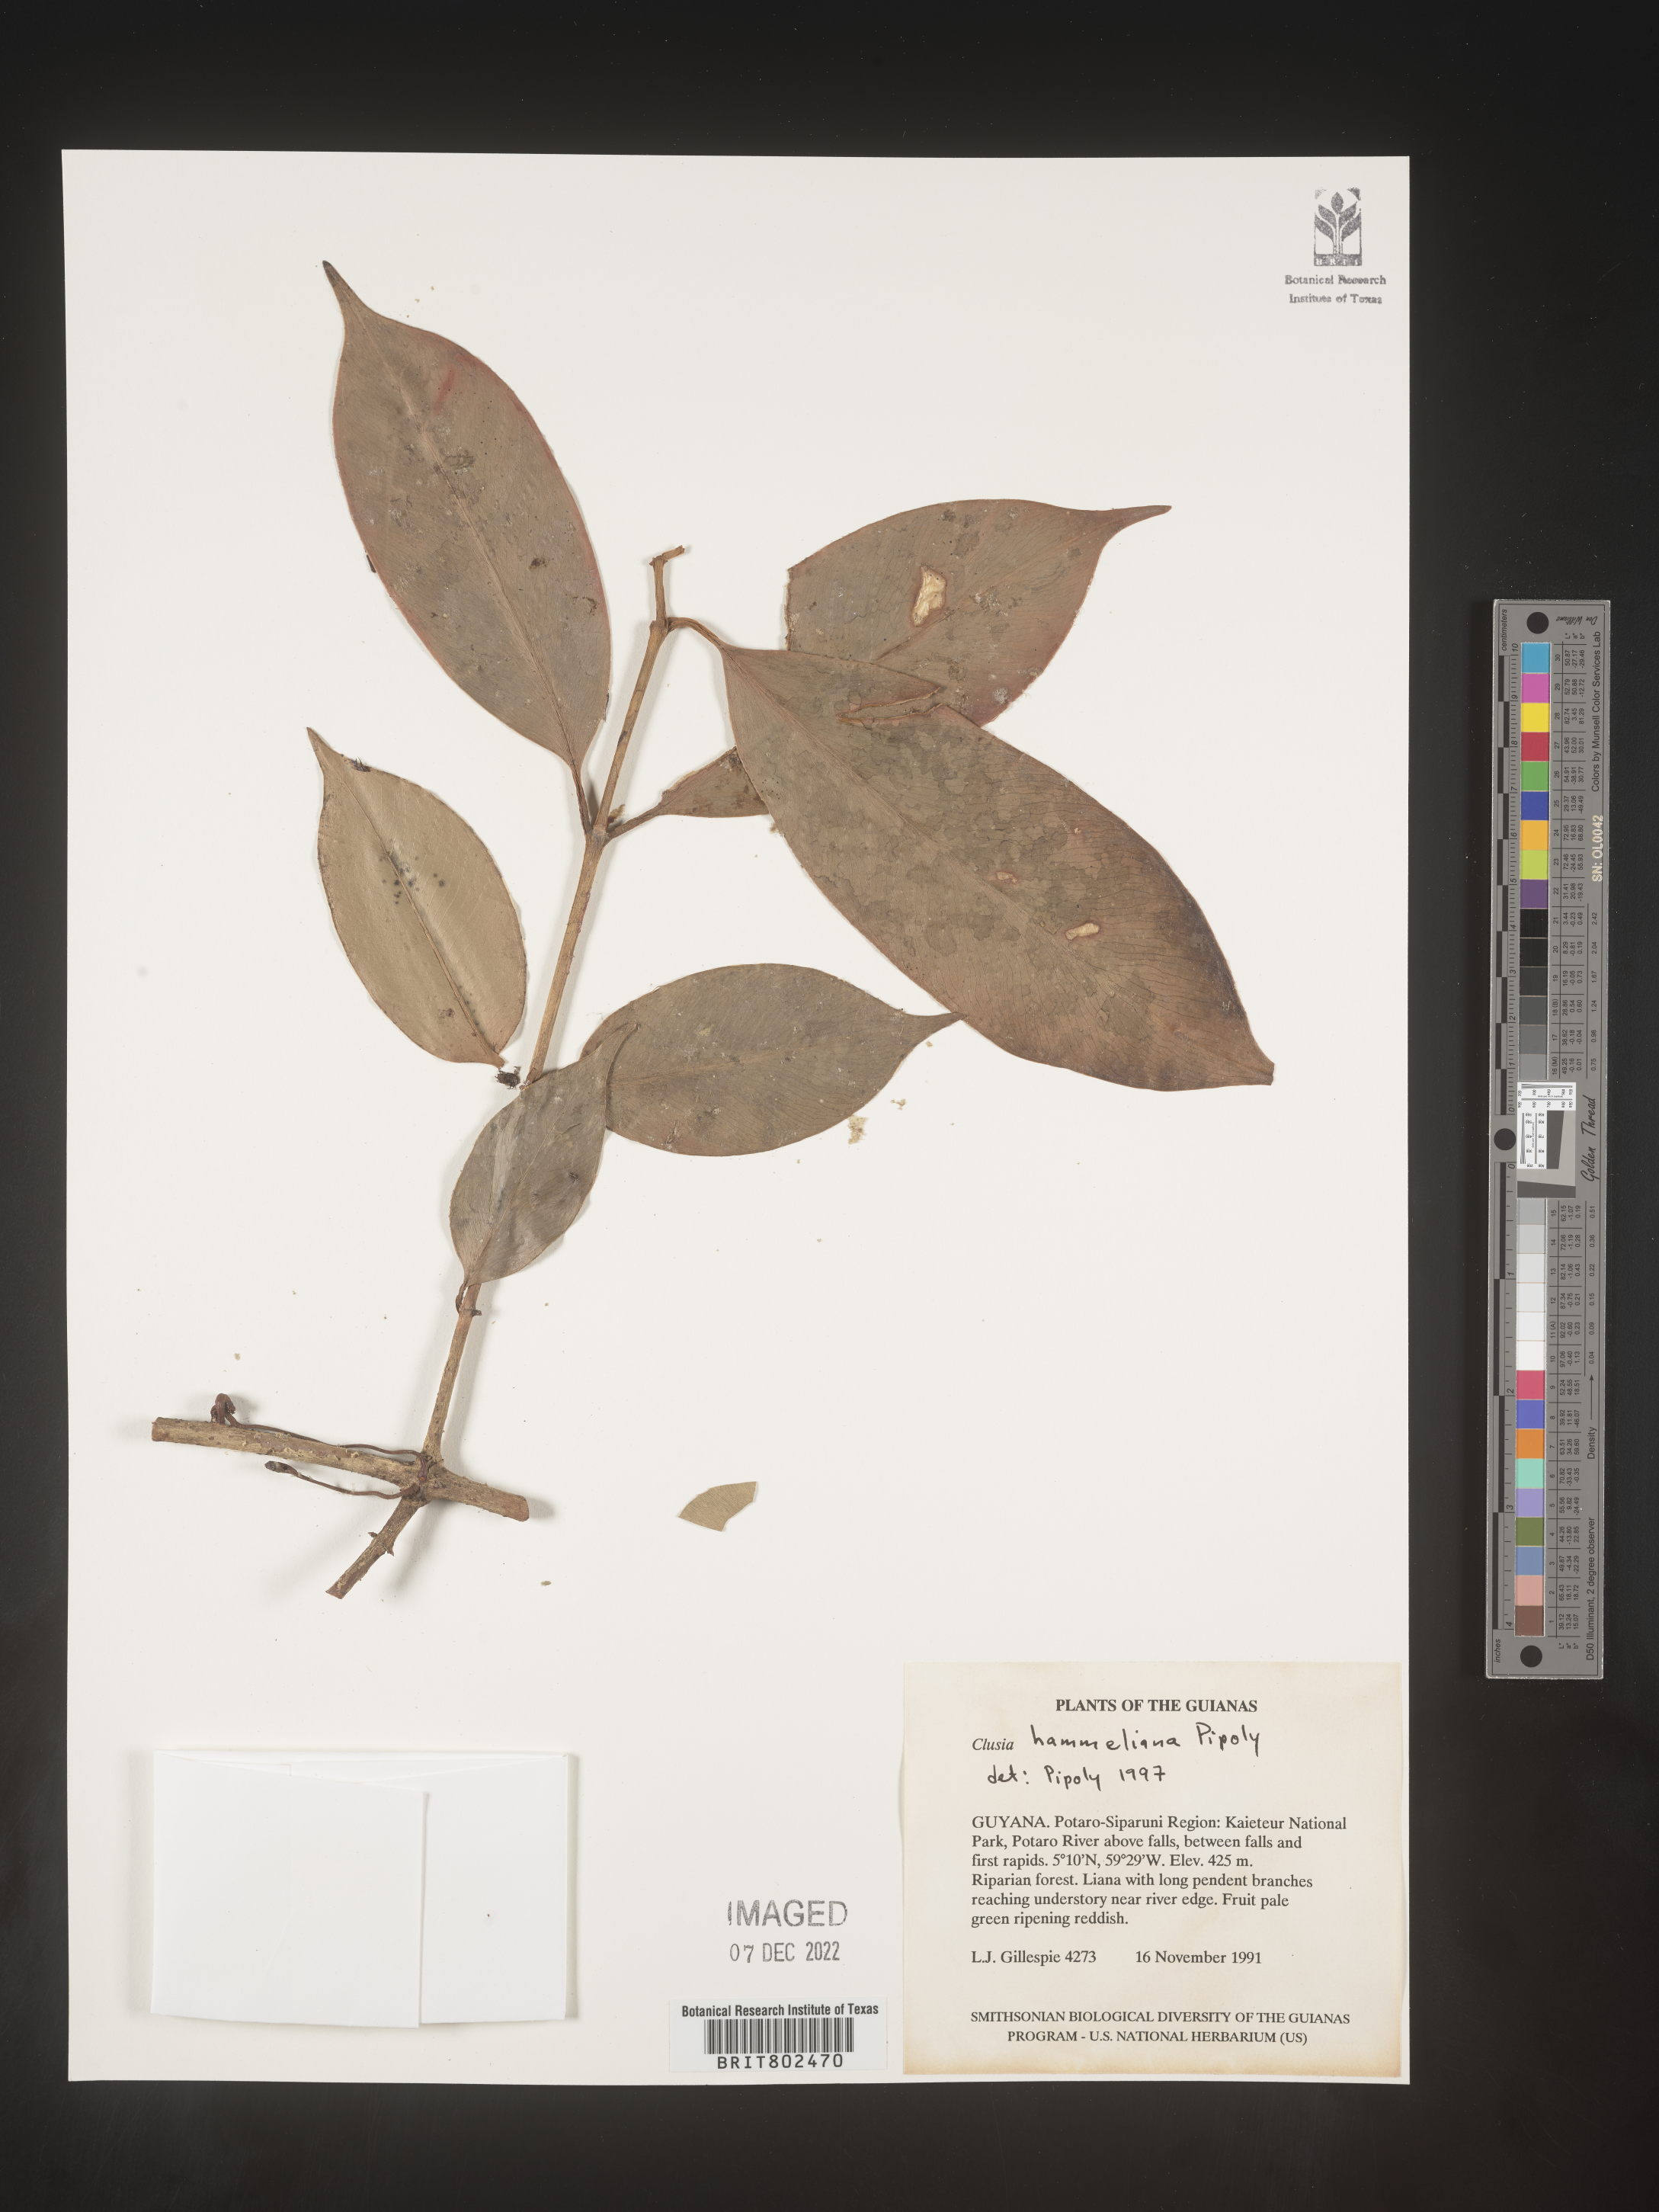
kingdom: Plantae
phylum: Tracheophyta
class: Magnoliopsida
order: Malpighiales
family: Clusiaceae
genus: Clusia
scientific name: Clusia hammeliana
